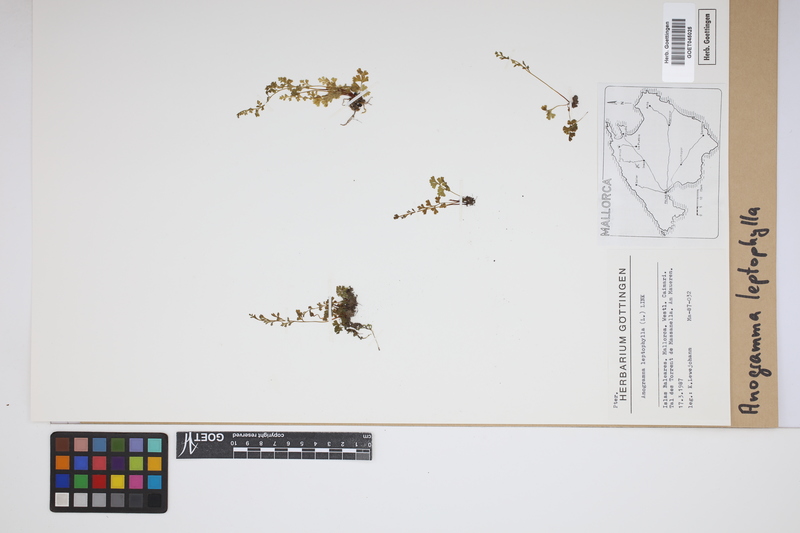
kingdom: Plantae
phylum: Tracheophyta
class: Polypodiopsida
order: Polypodiales
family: Pteridaceae
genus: Anogramma
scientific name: Anogramma leptophylla
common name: Jersey fern
